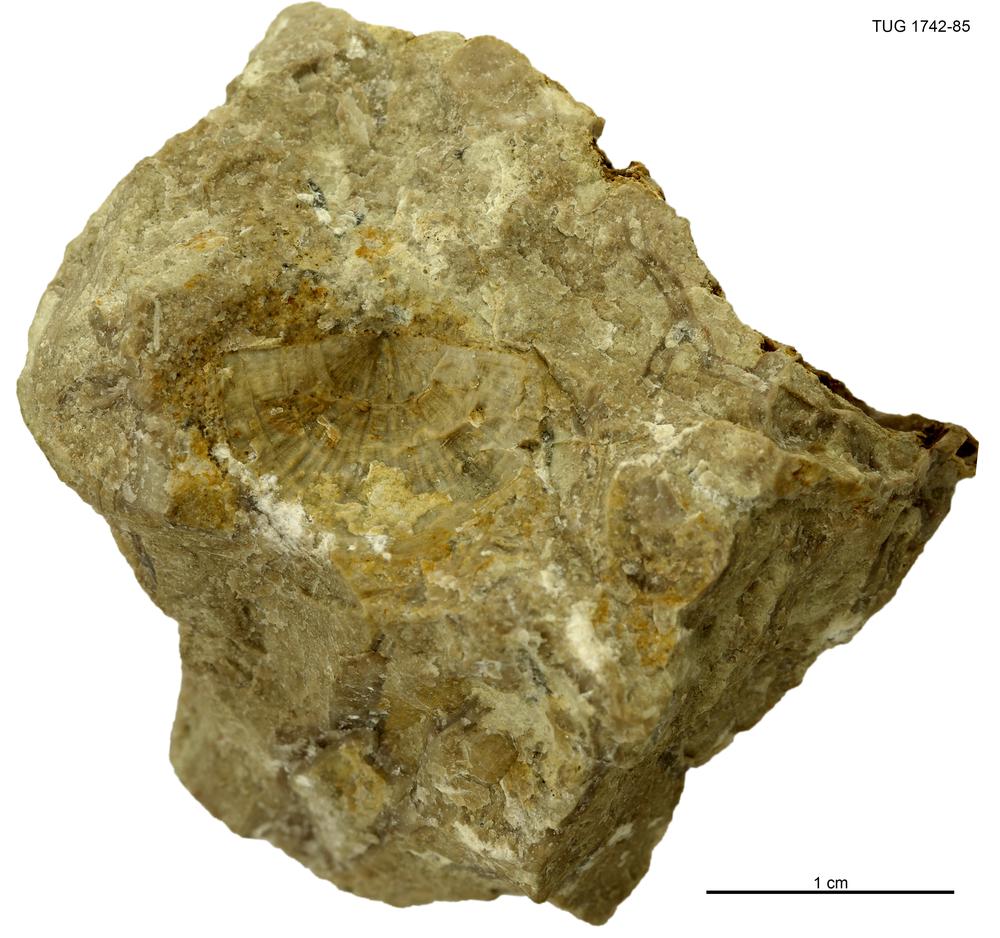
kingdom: Animalia
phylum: Brachiopoda
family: Strophomenidae
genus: Holtedahlina
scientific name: Holtedahlina
